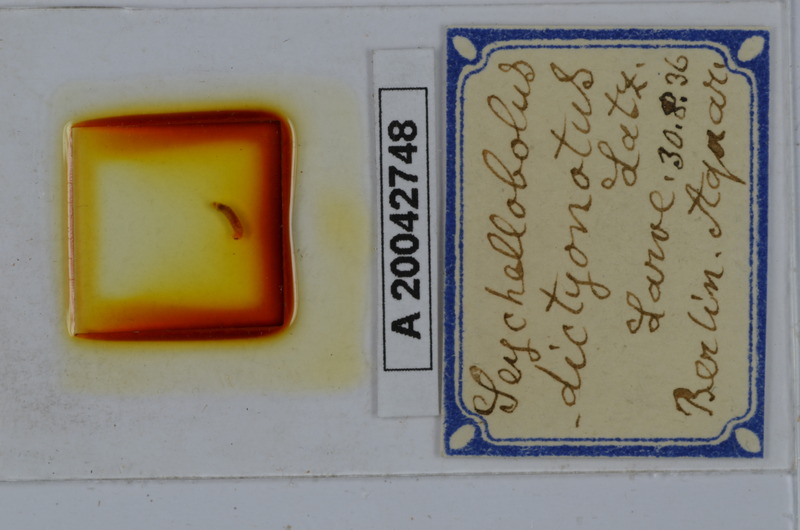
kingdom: Animalia
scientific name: Animalia
